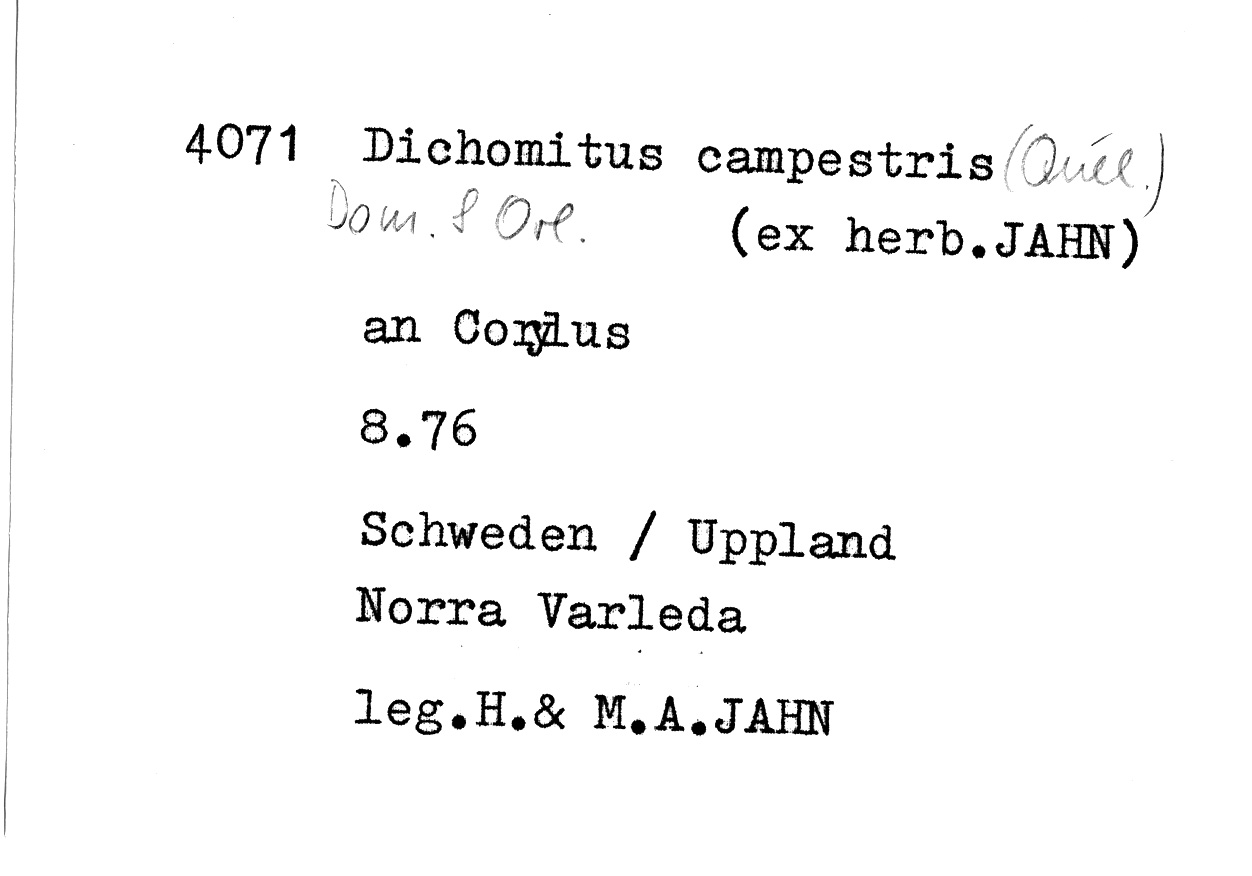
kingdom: Fungi
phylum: Basidiomycota
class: Agaricomycetes
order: Polyporales
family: Polyporaceae
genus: Szczepkamyces
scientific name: Szczepkamyces campestris
